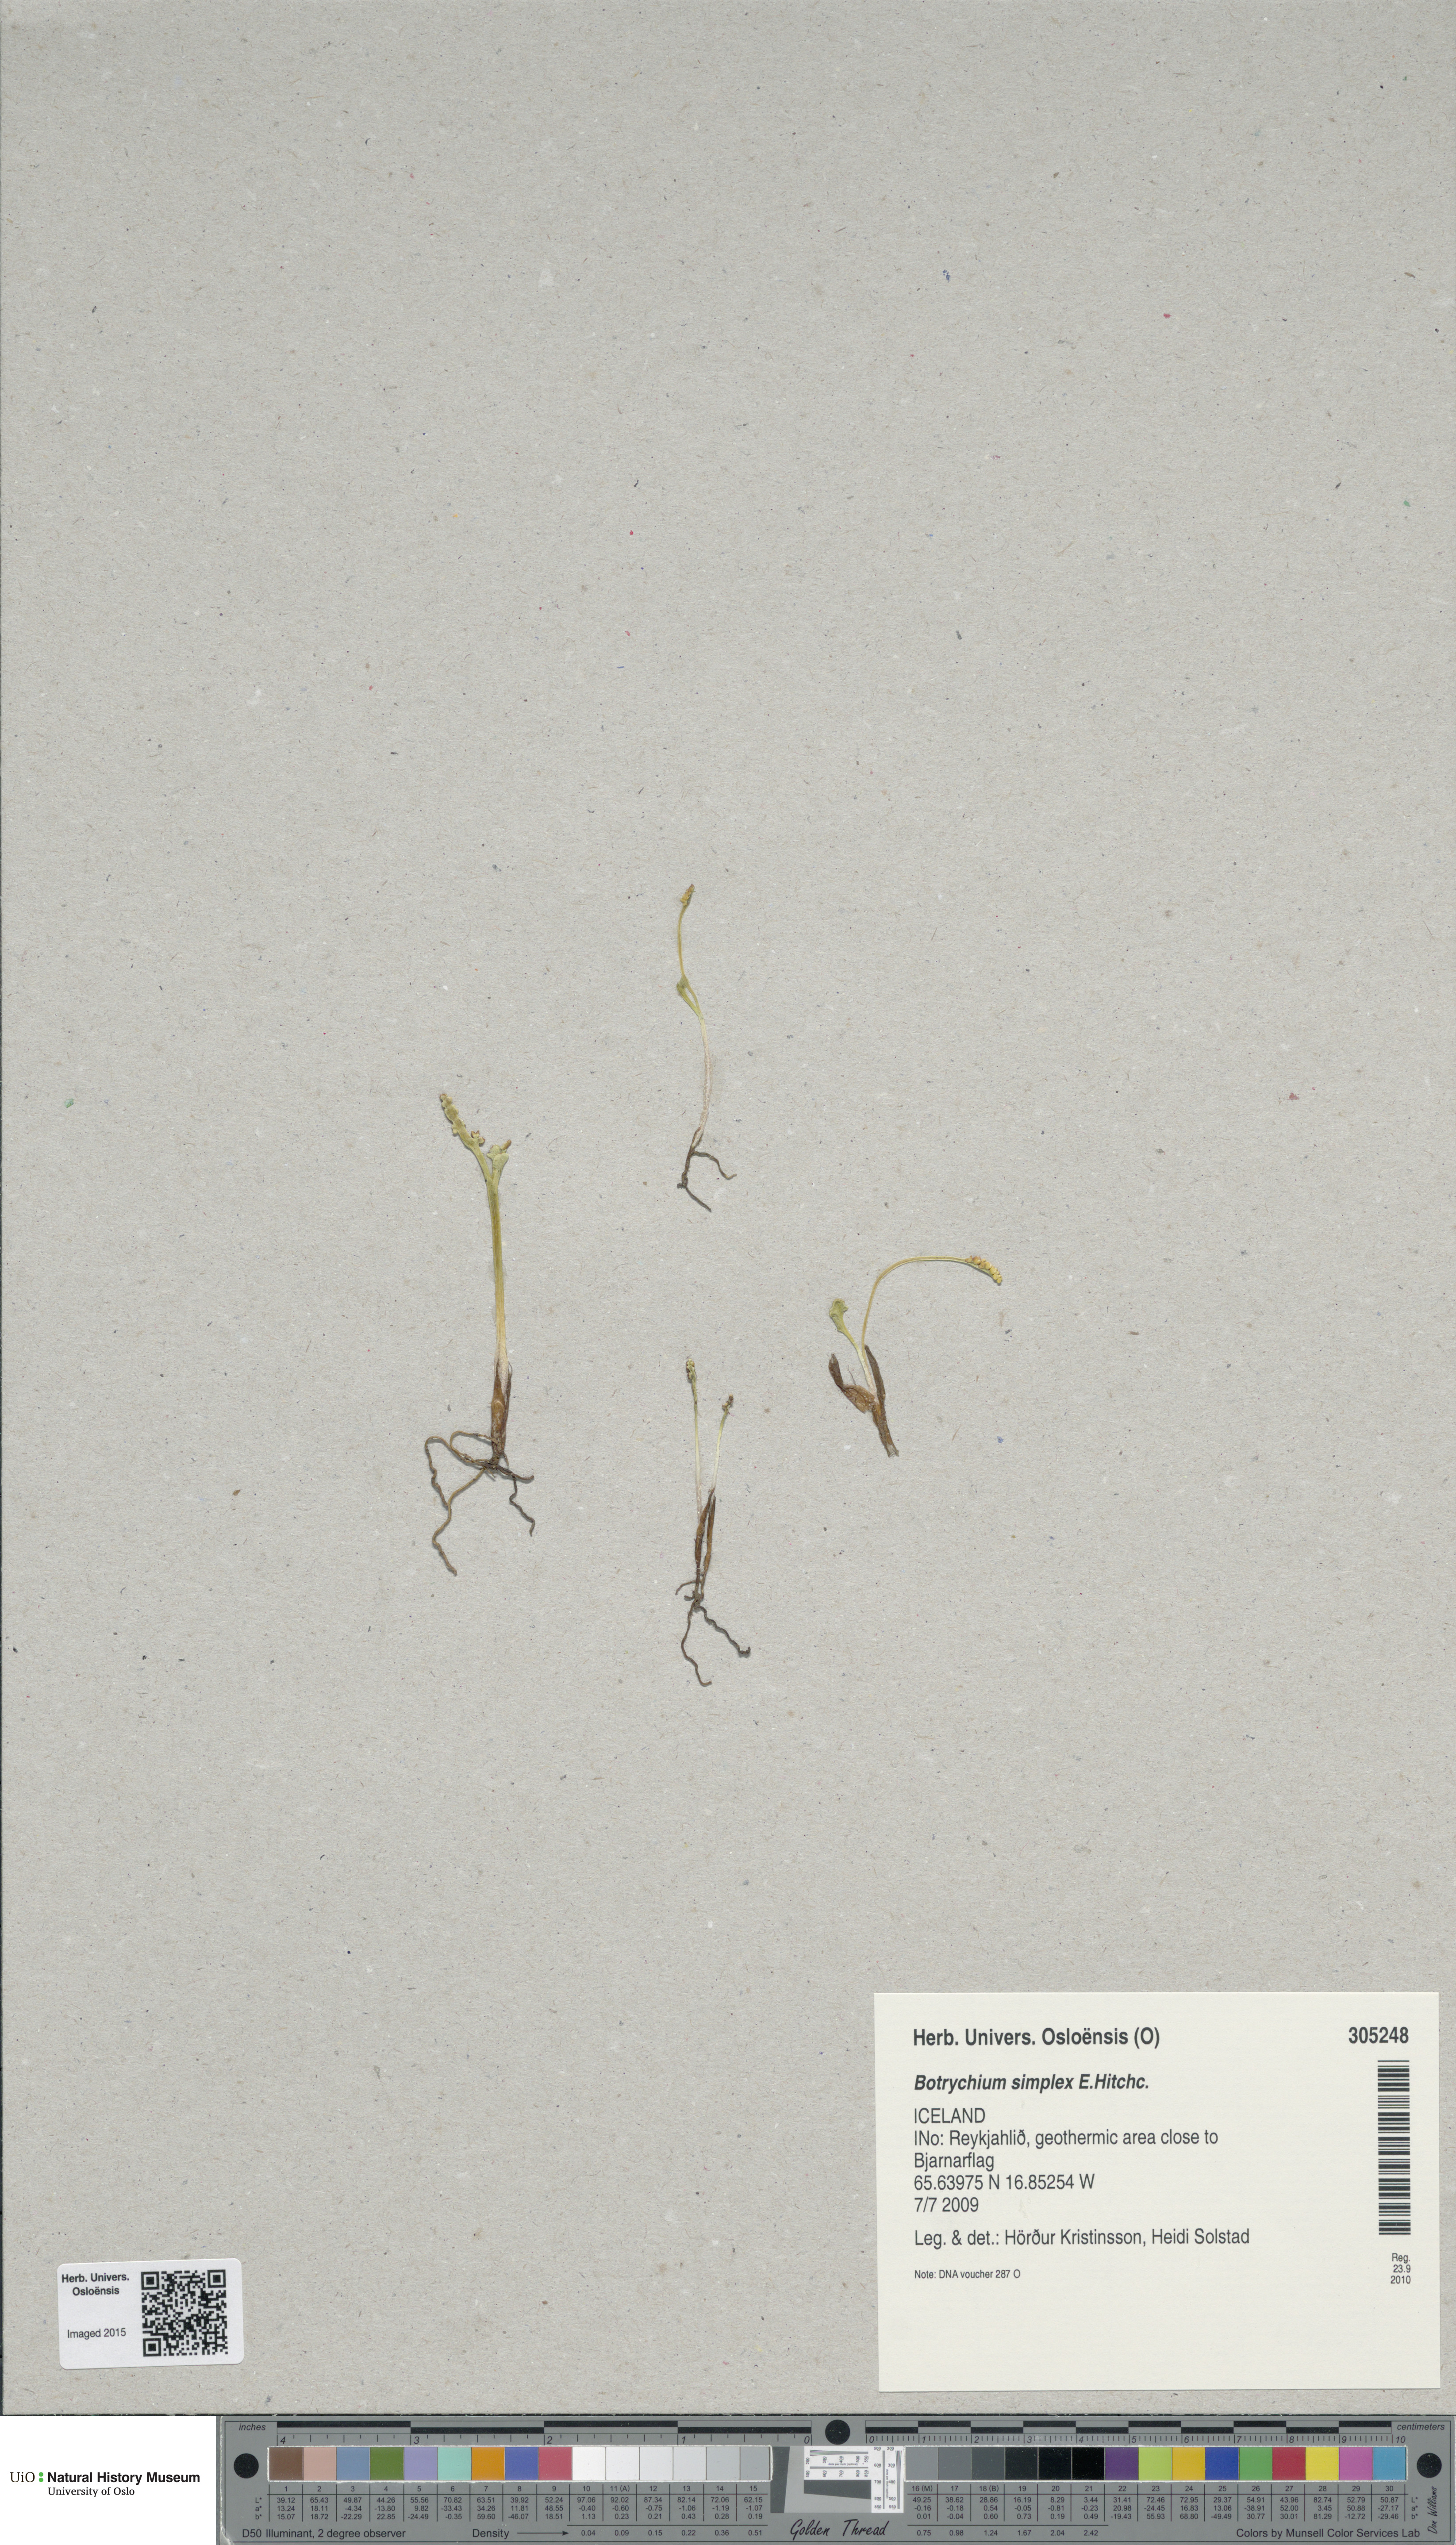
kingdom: Plantae
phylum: Tracheophyta
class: Polypodiopsida
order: Ophioglossales
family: Ophioglossaceae
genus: Botrychium
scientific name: Botrychium simplex
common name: Least moonwort
